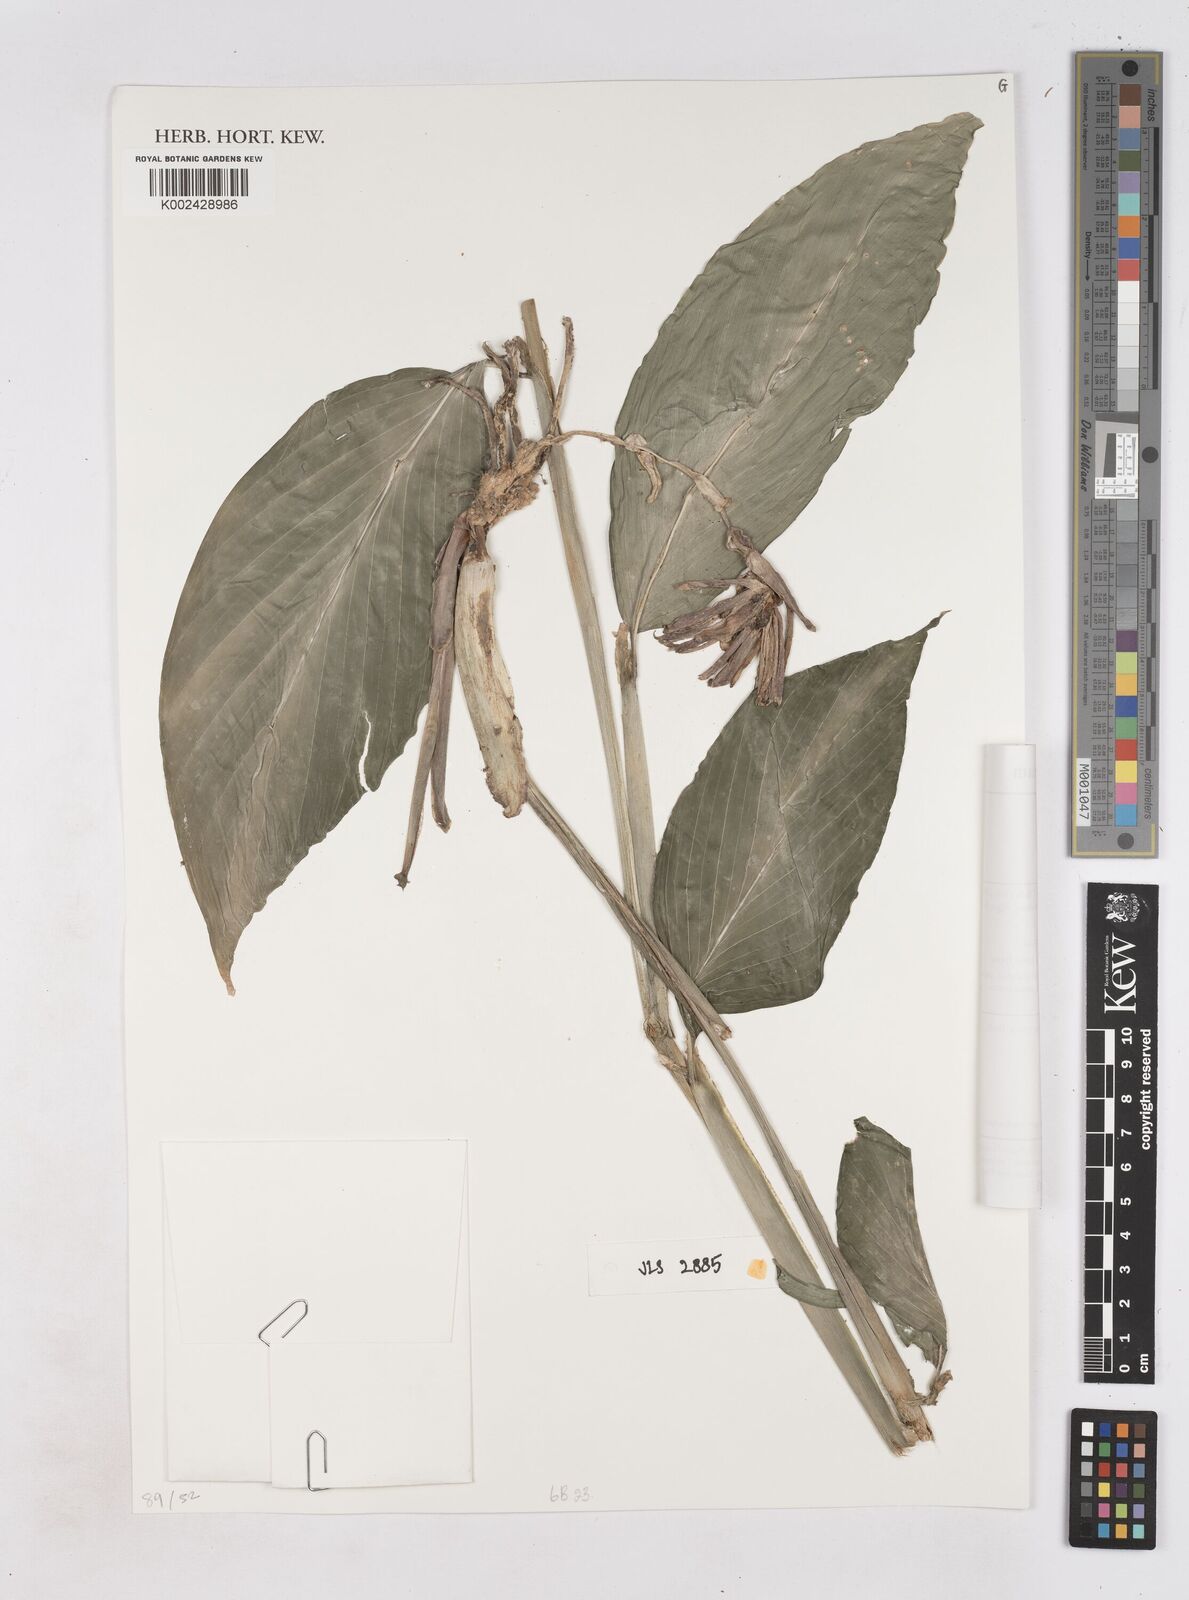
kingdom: Plantae
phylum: Tracheophyta
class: Liliopsida
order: Zingiberales
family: Zingiberaceae
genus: Zingiber
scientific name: Zingiber
